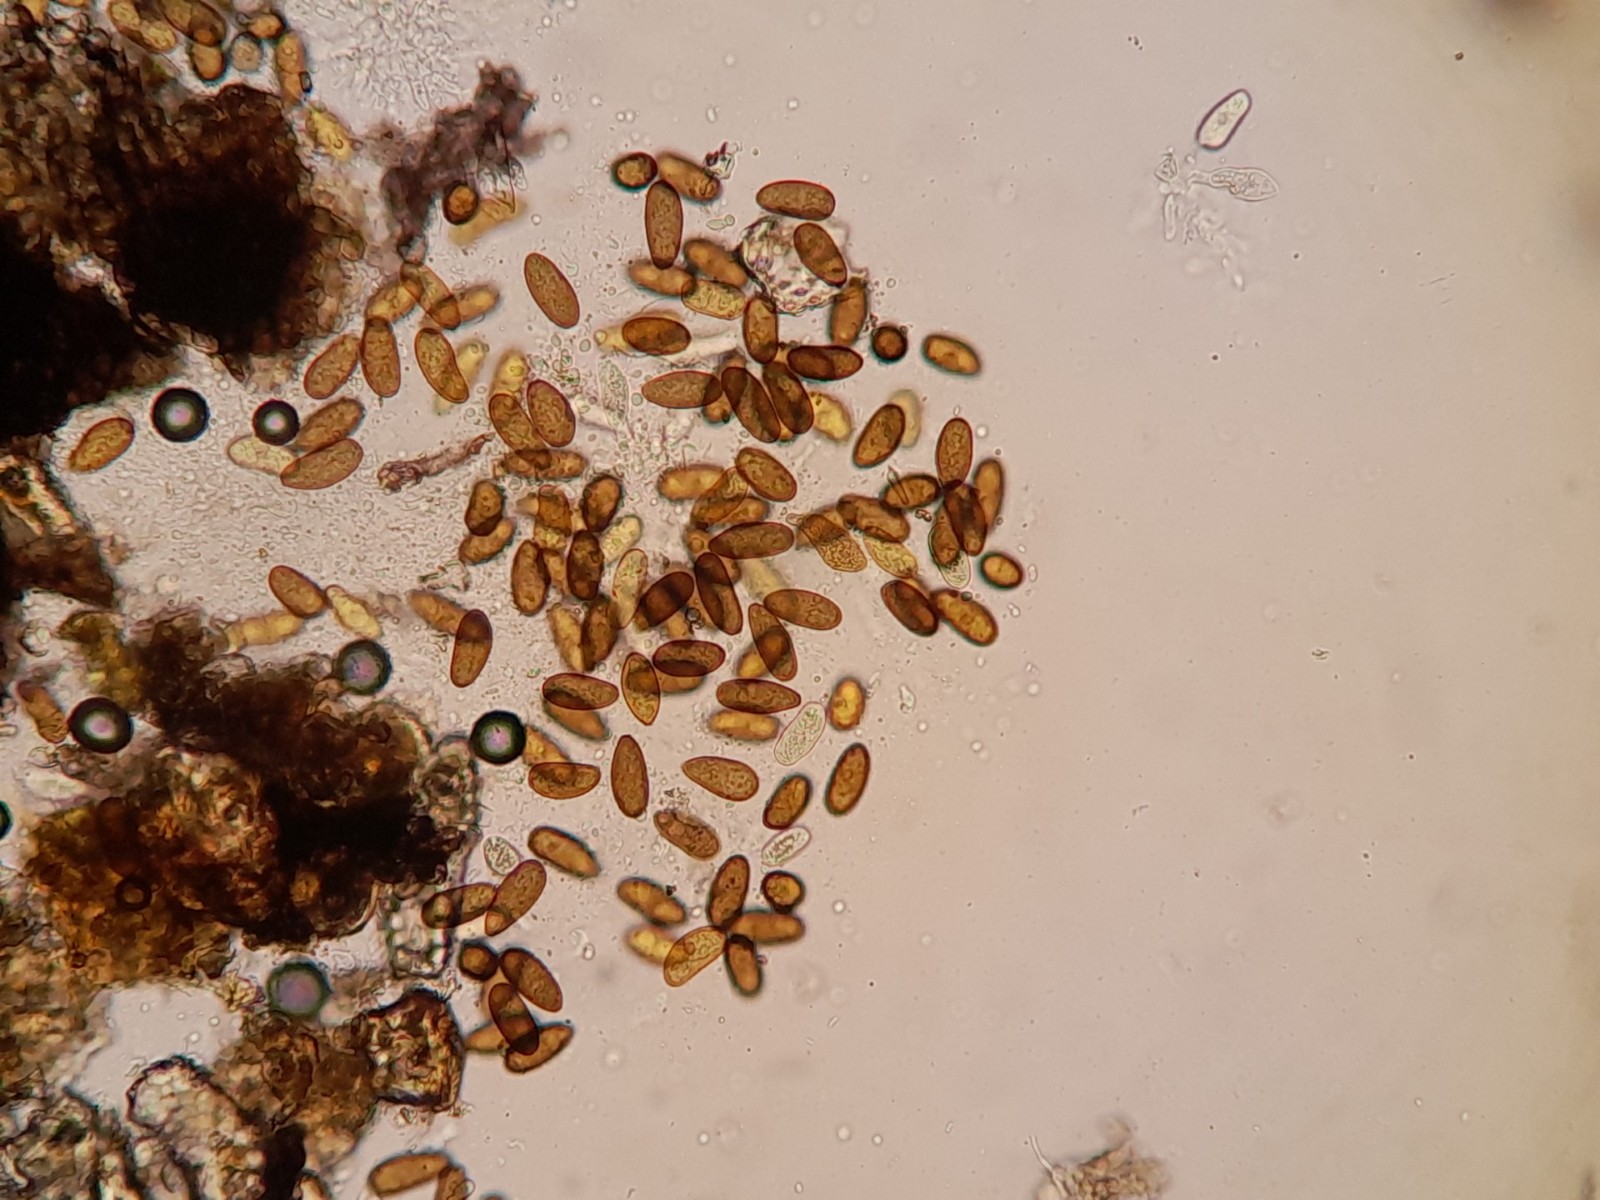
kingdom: Fungi
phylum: Ascomycota
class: Dothideomycetes
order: Botryosphaeriales
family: Botryosphaeriaceae
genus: Sphaeropsis
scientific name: Sphaeropsis sapinea
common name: Sphaeropsis blight
